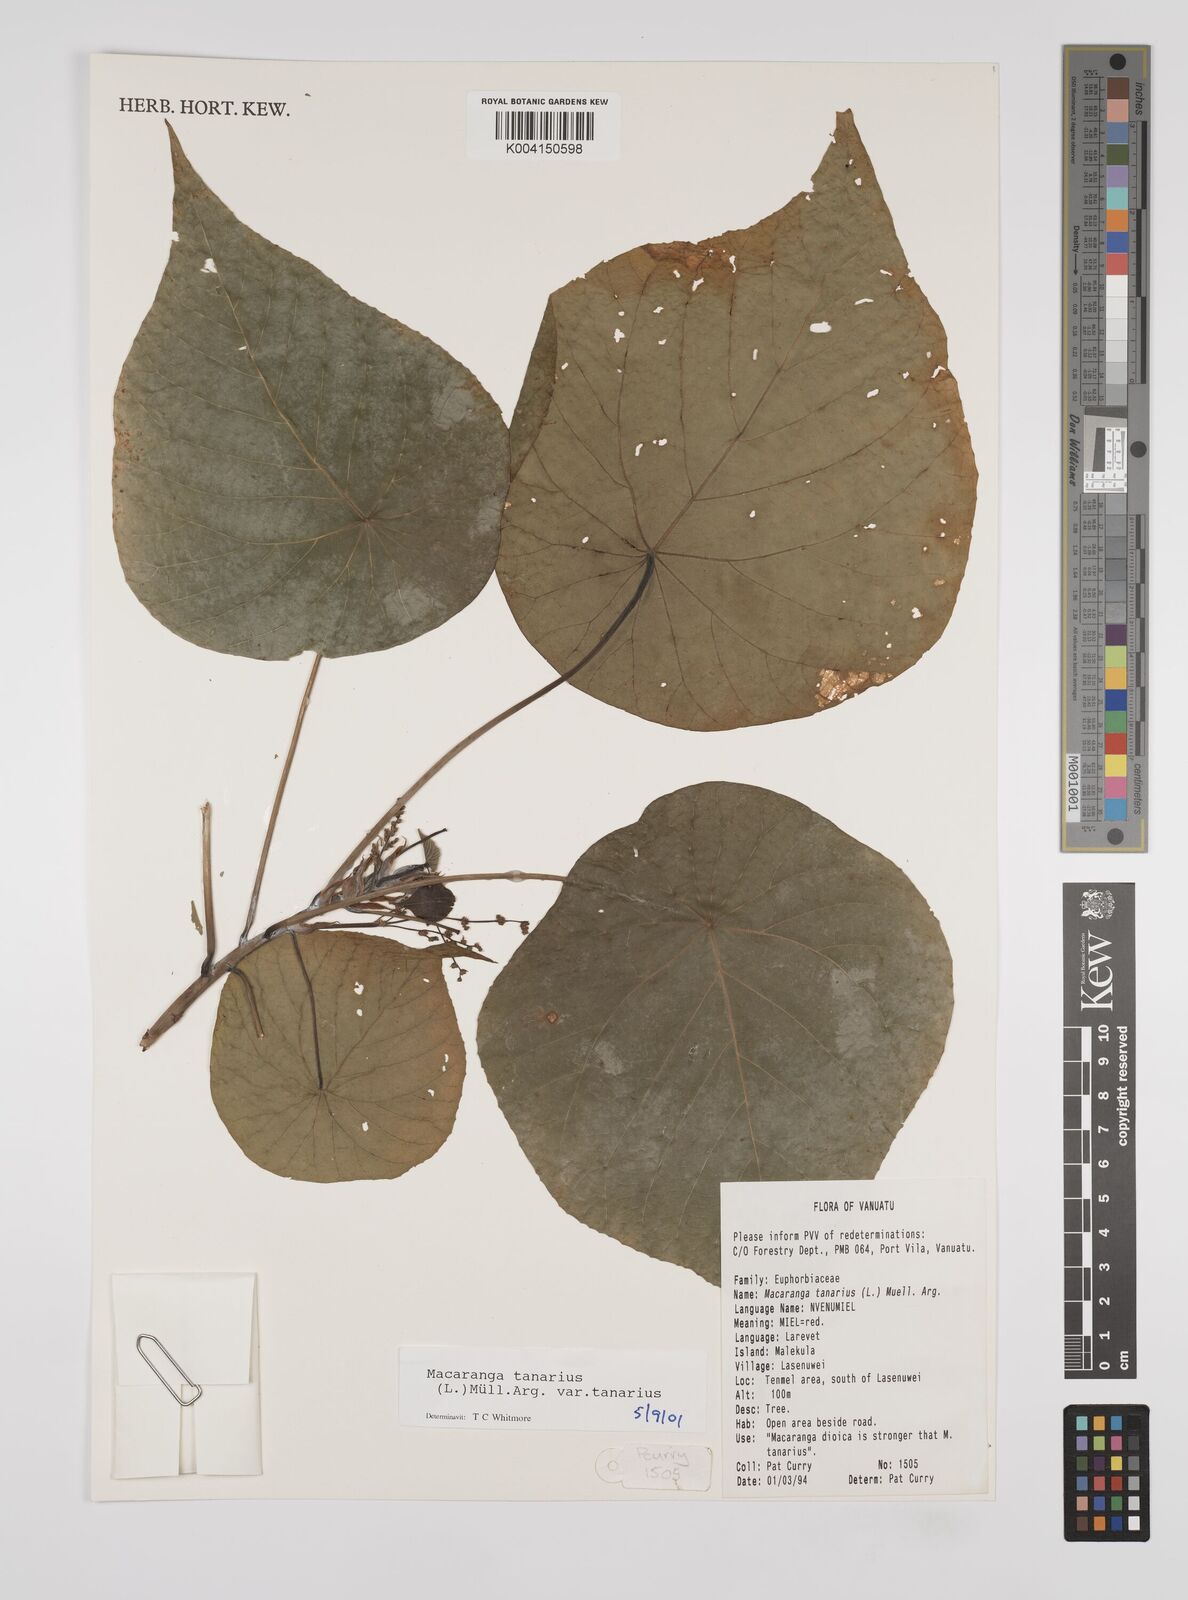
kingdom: Plantae
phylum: Tracheophyta
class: Magnoliopsida
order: Malpighiales
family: Euphorbiaceae
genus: Macaranga
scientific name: Macaranga tanarius
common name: Parasol leaf tree
